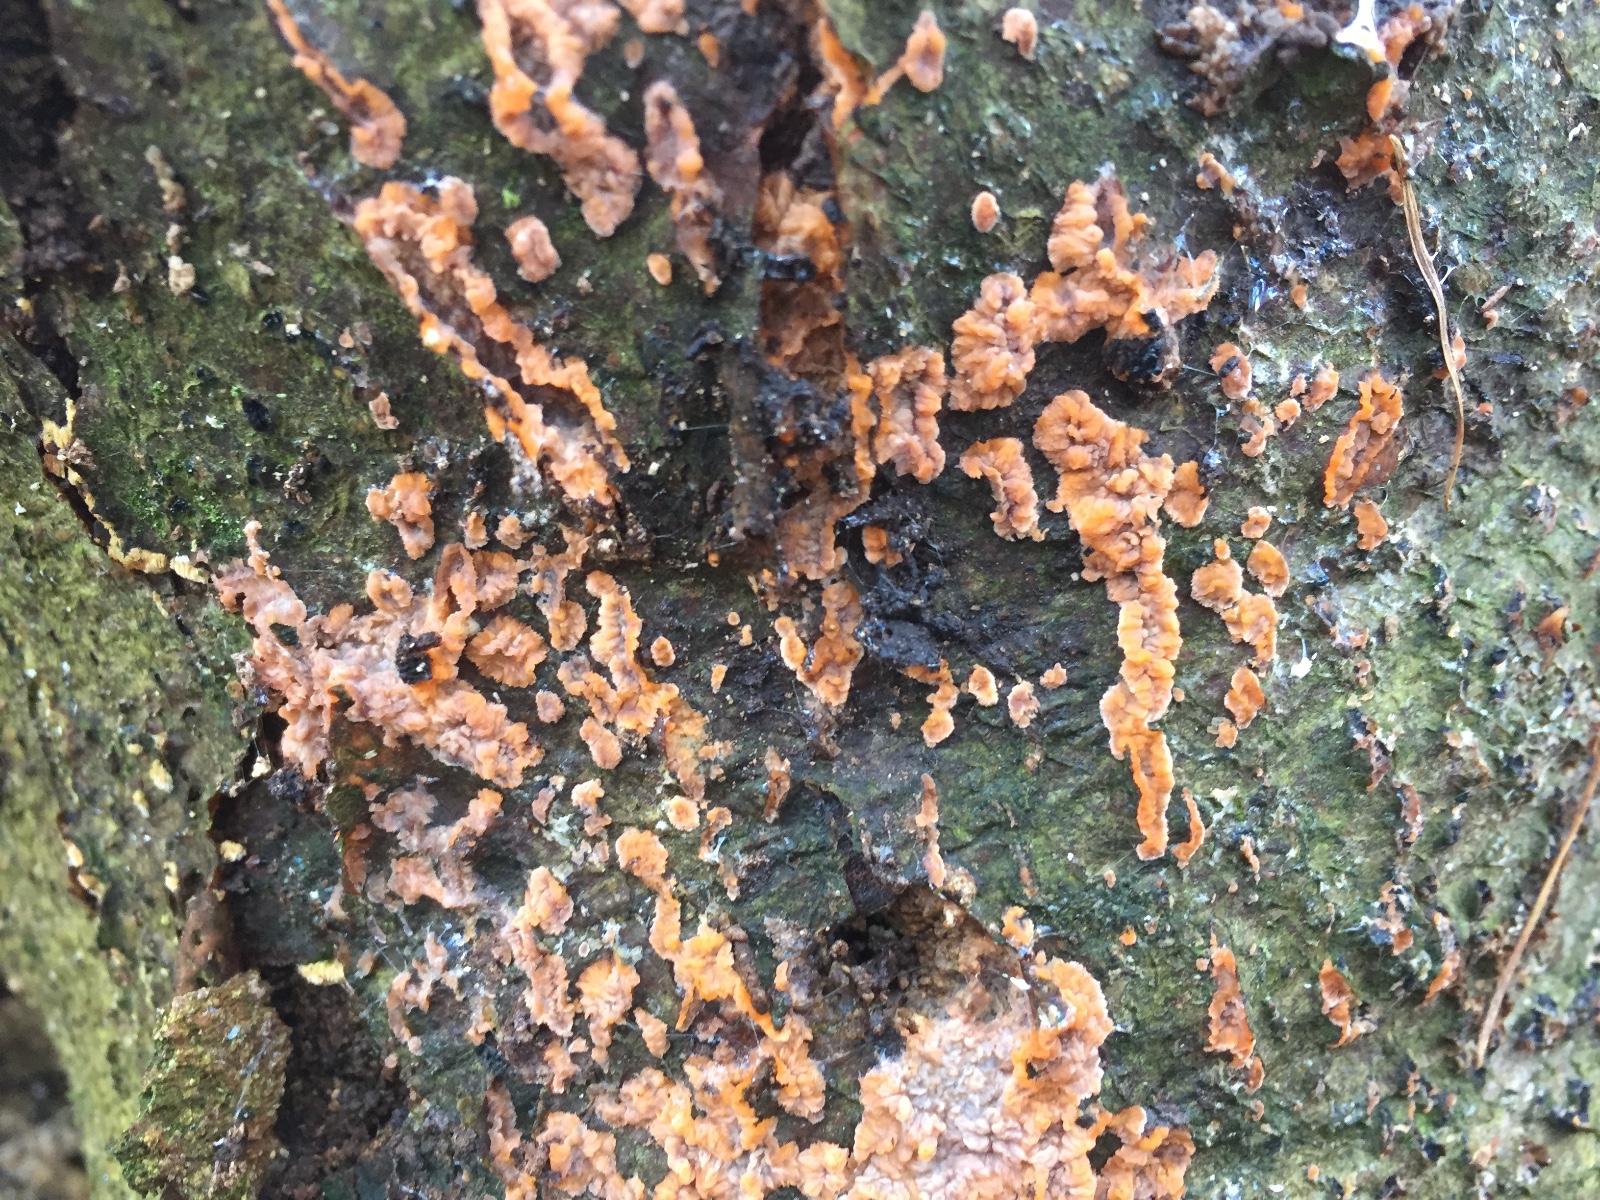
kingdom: Fungi
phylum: Basidiomycota
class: Agaricomycetes
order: Polyporales
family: Meruliaceae
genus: Phlebia
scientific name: Phlebia radiata
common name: stråle-åresvamp
